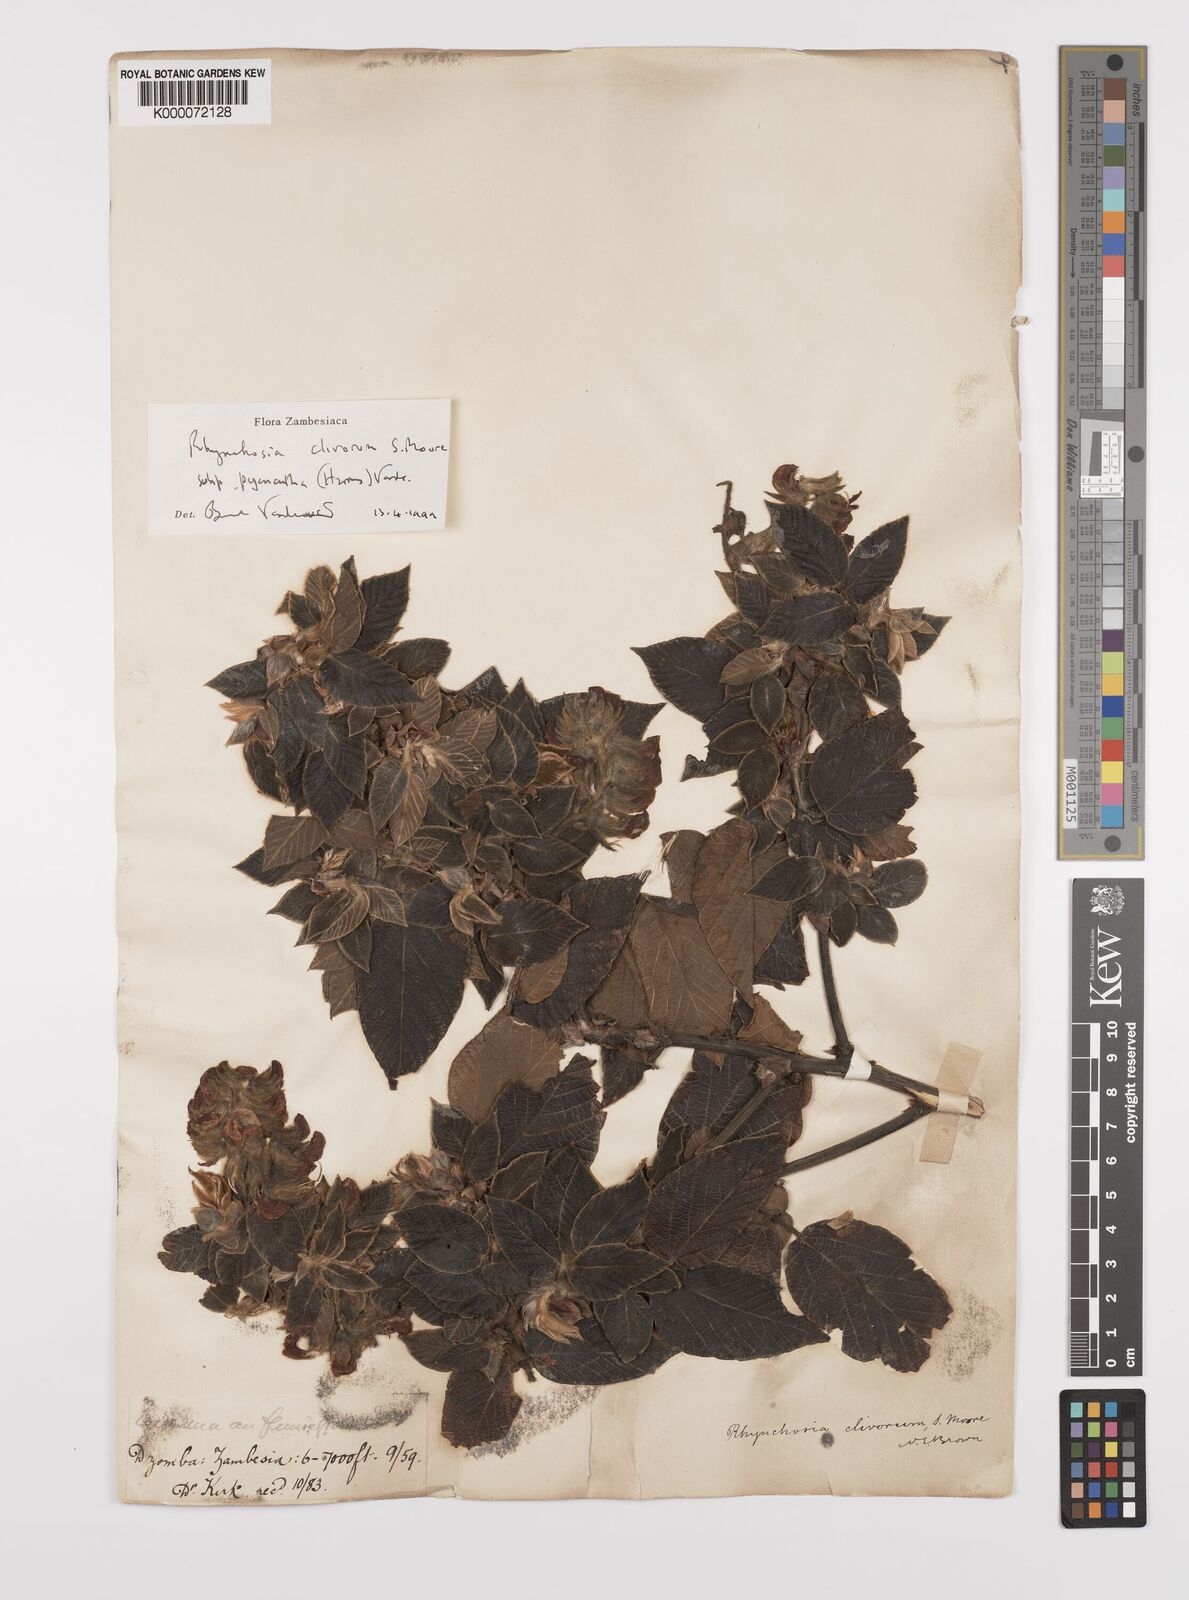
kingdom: Plantae
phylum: Tracheophyta
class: Magnoliopsida
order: Fabales
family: Fabaceae
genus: Rhynchosia
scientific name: Rhynchosia clivorum
